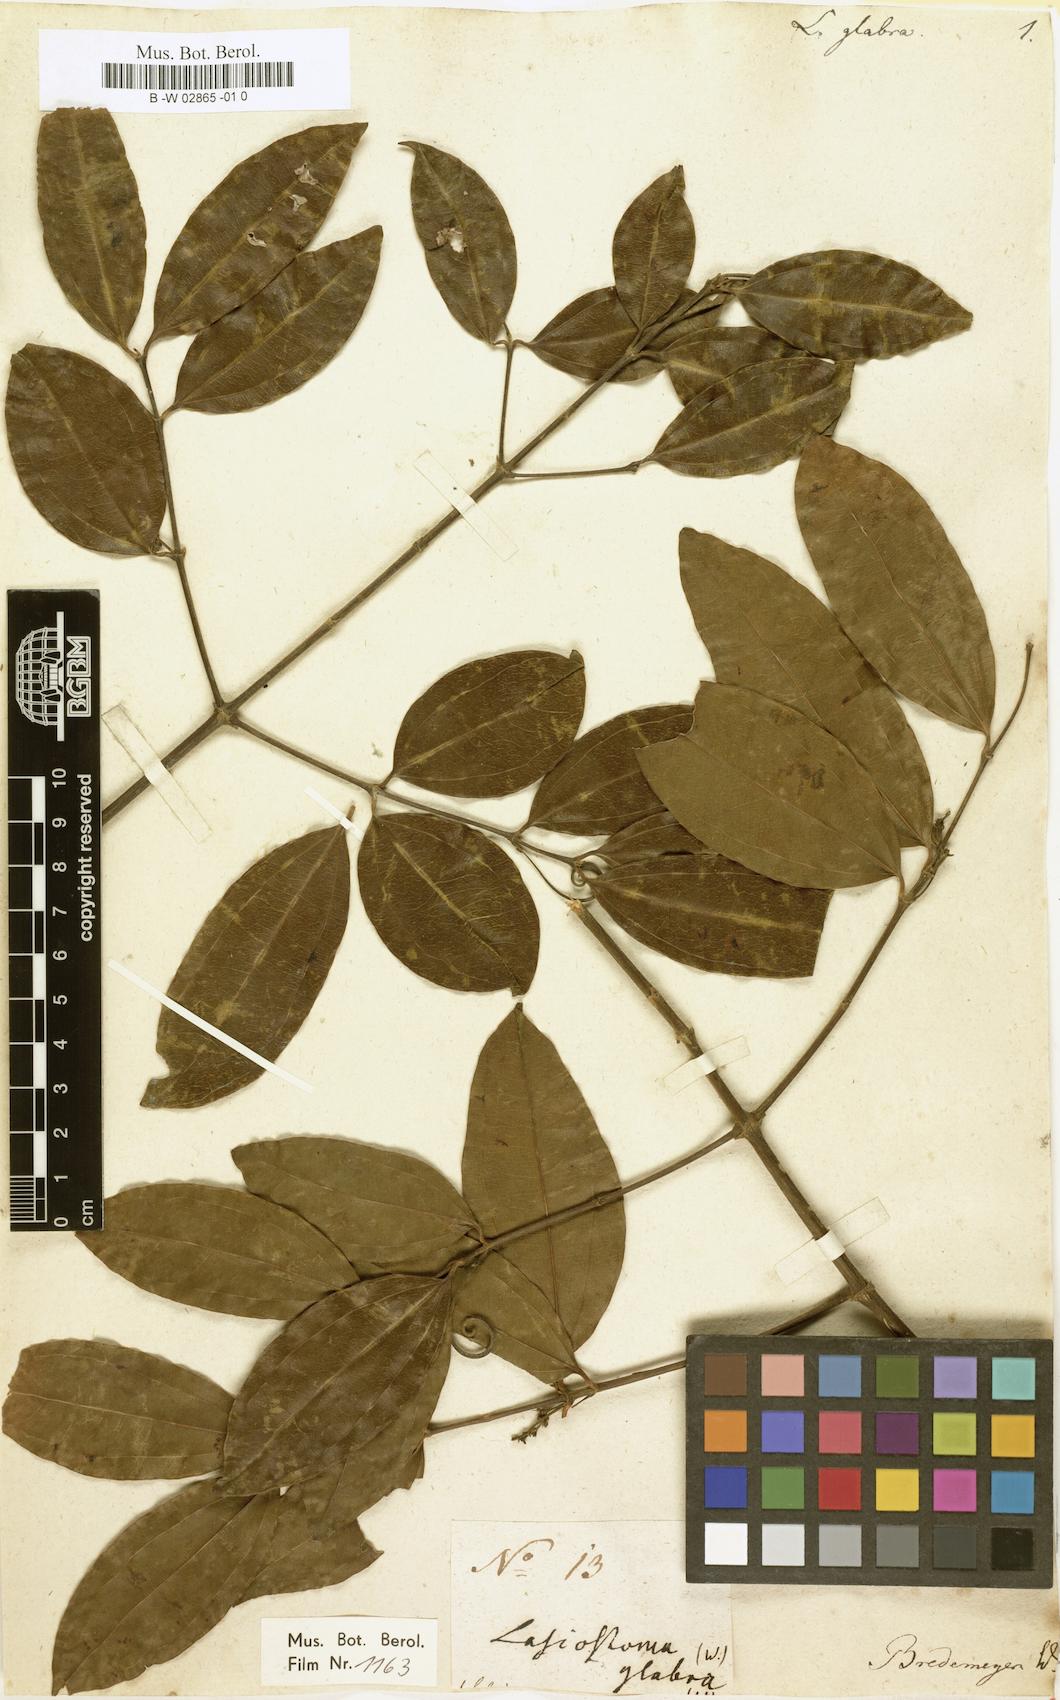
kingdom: Plantae
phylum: Tracheophyta
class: Magnoliopsida
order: Gentianales
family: Loganiaceae
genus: Strychnos
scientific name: Strychnos bredemeyeri
